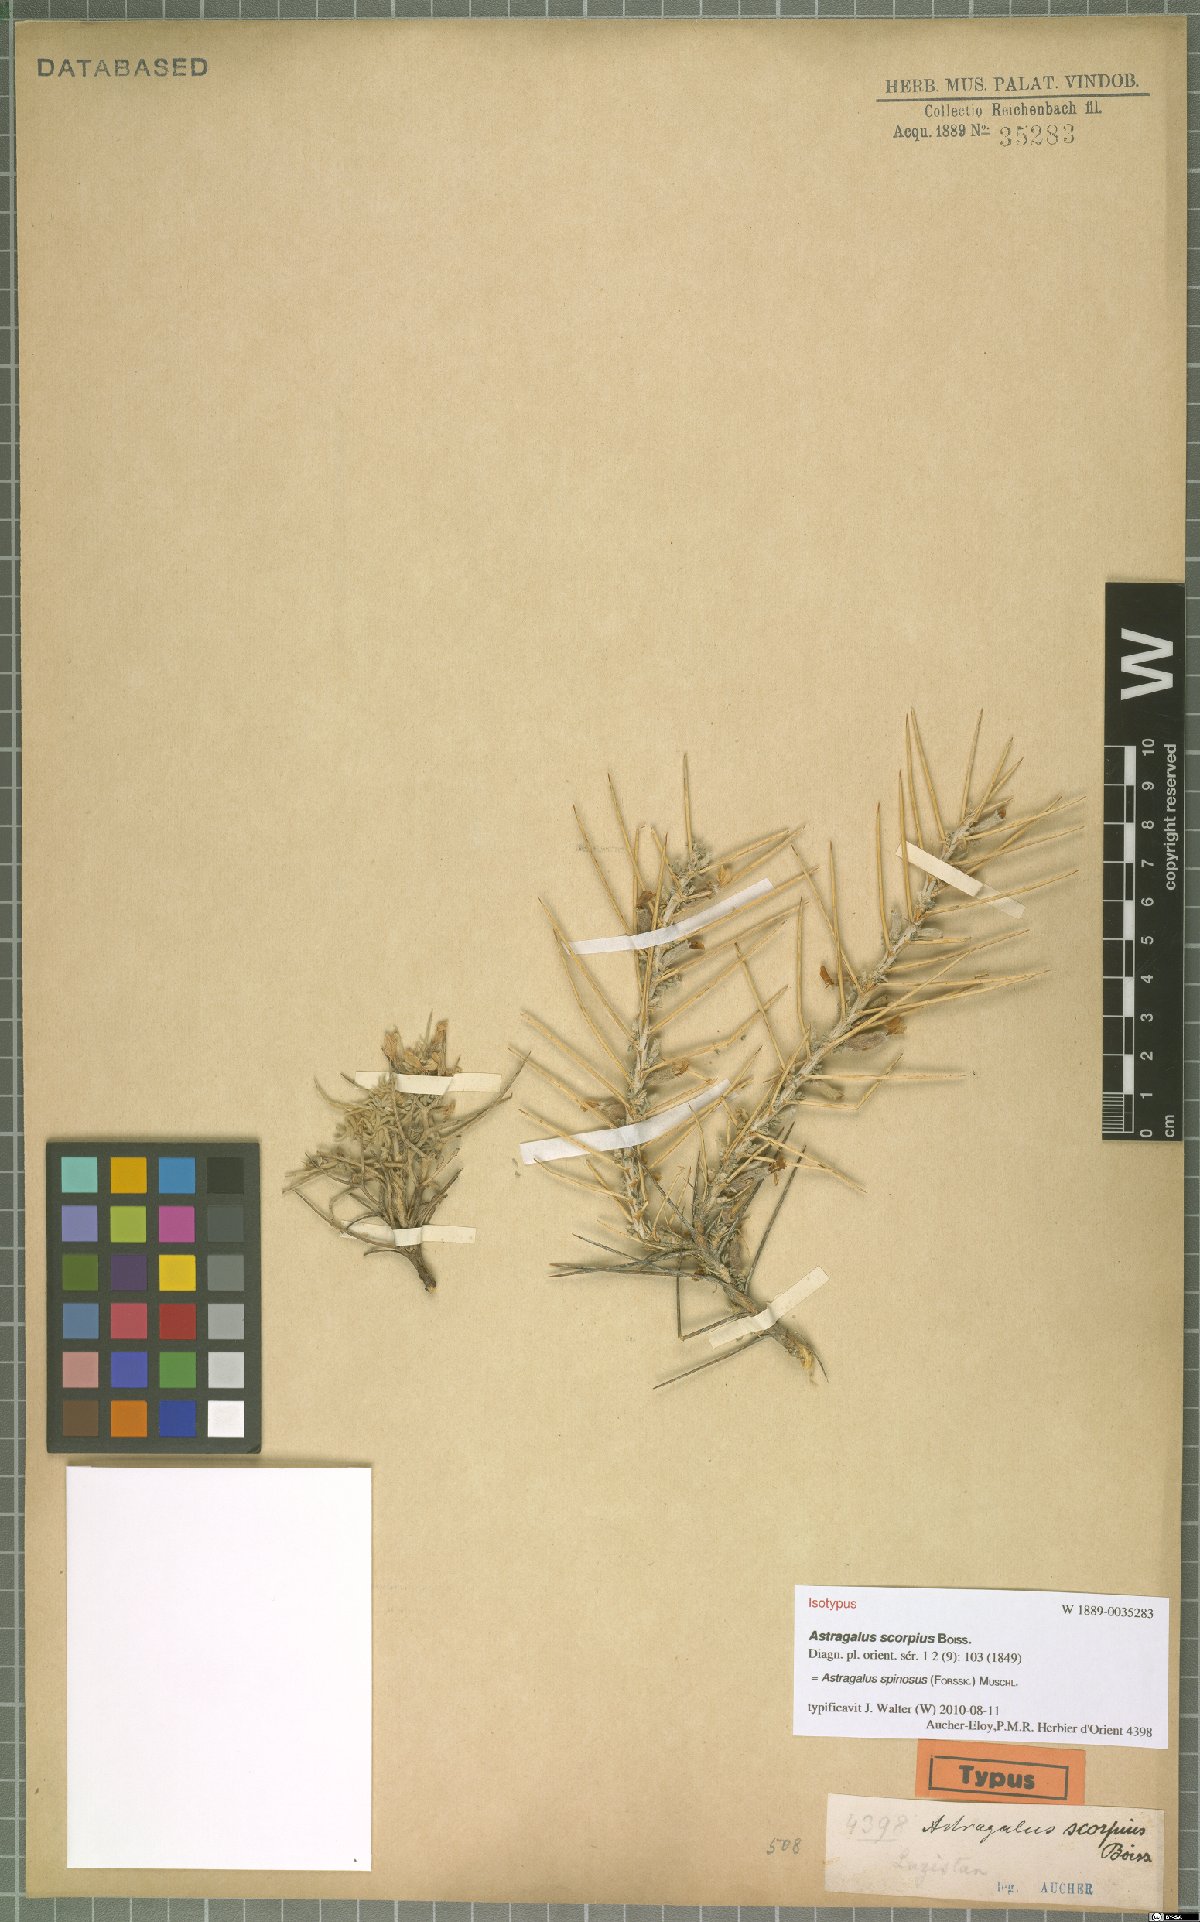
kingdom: Plantae
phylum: Tracheophyta
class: Magnoliopsida
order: Fabales
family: Fabaceae
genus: Astragalus
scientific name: Astragalus spinosus
